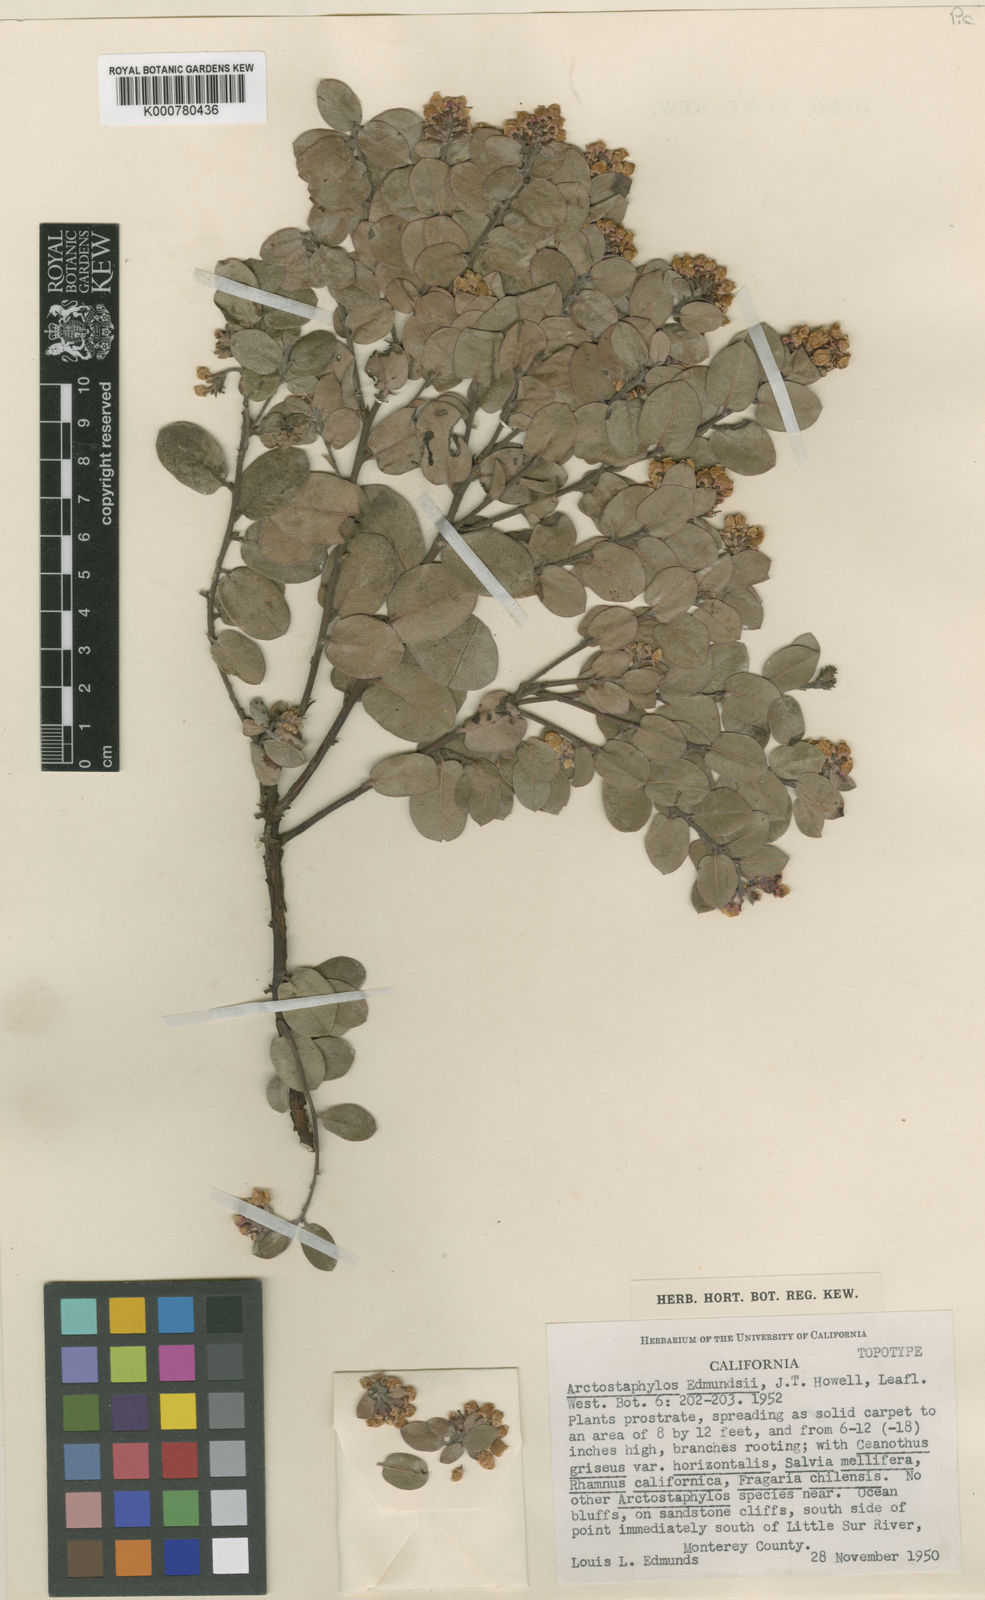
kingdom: Plantae
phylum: Tracheophyta
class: Magnoliopsida
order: Ericales
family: Ericaceae
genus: Arctostaphylos
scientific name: Arctostaphylos edmundsii
